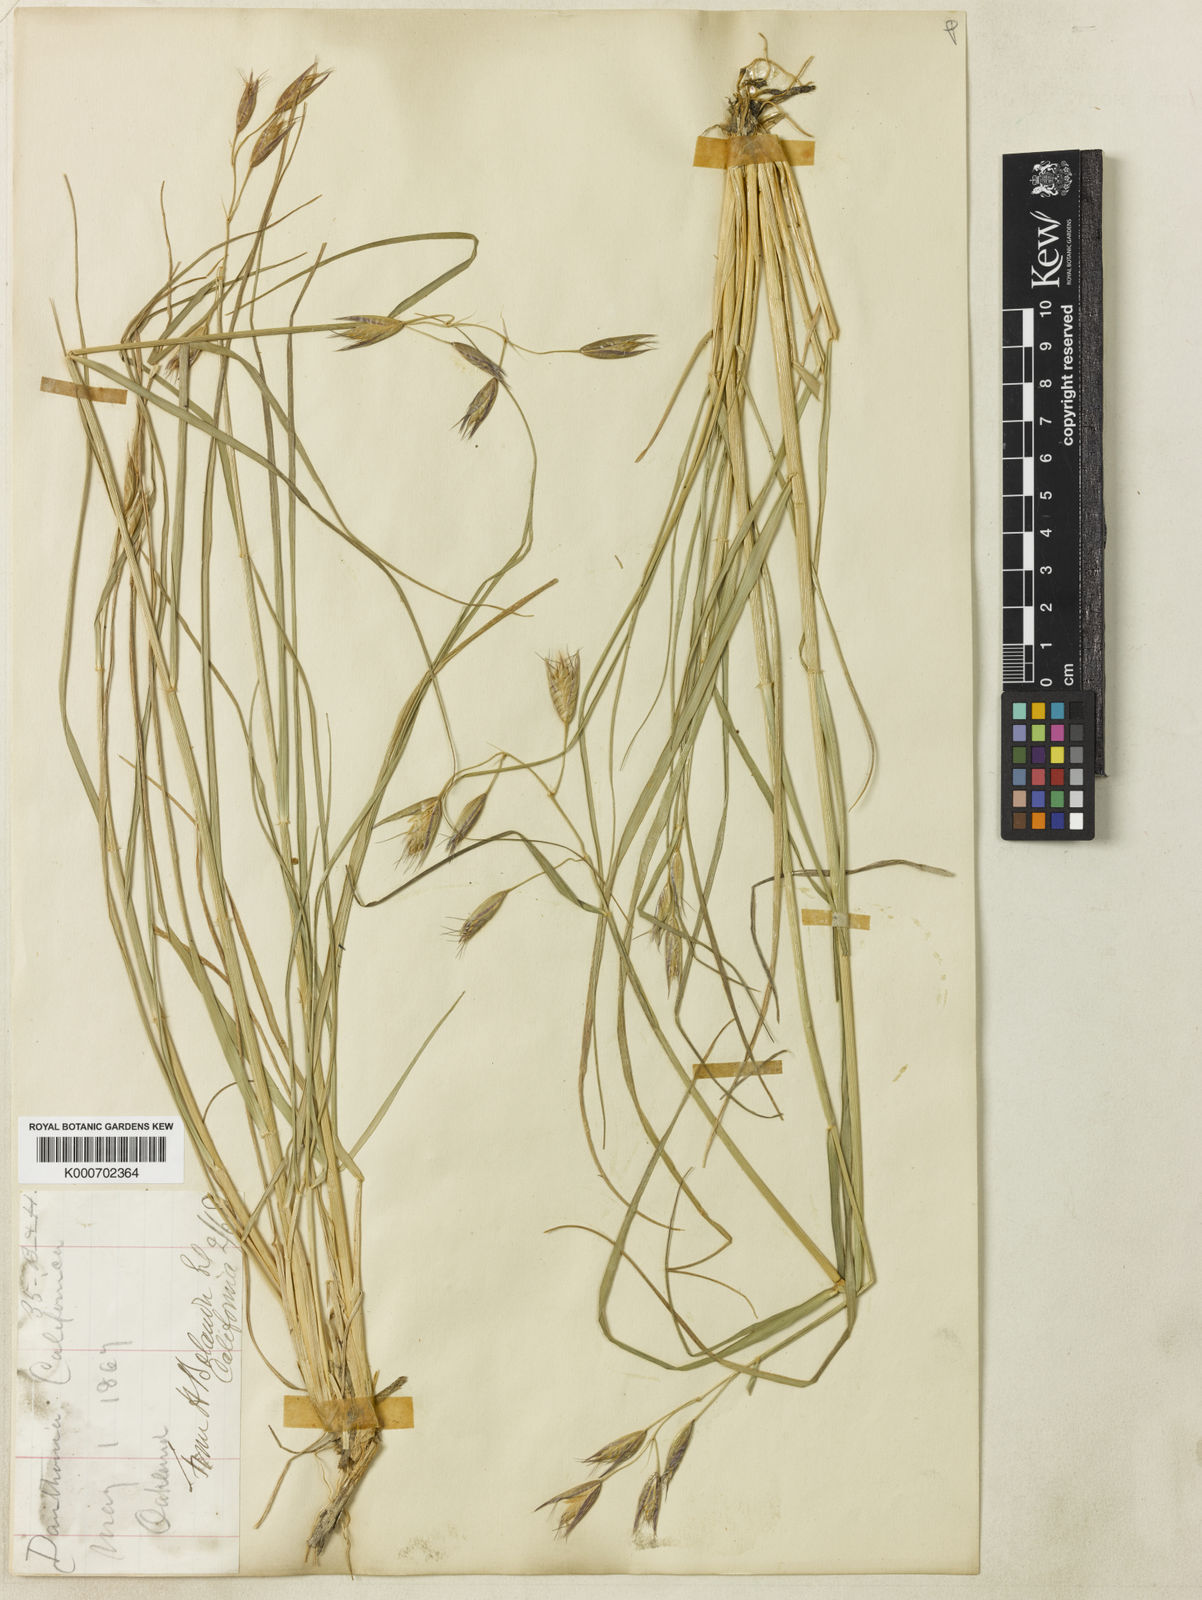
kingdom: Plantae
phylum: Tracheophyta
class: Liliopsida
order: Poales
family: Poaceae
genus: Danthonia
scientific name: Danthonia californica
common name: California oat grass
